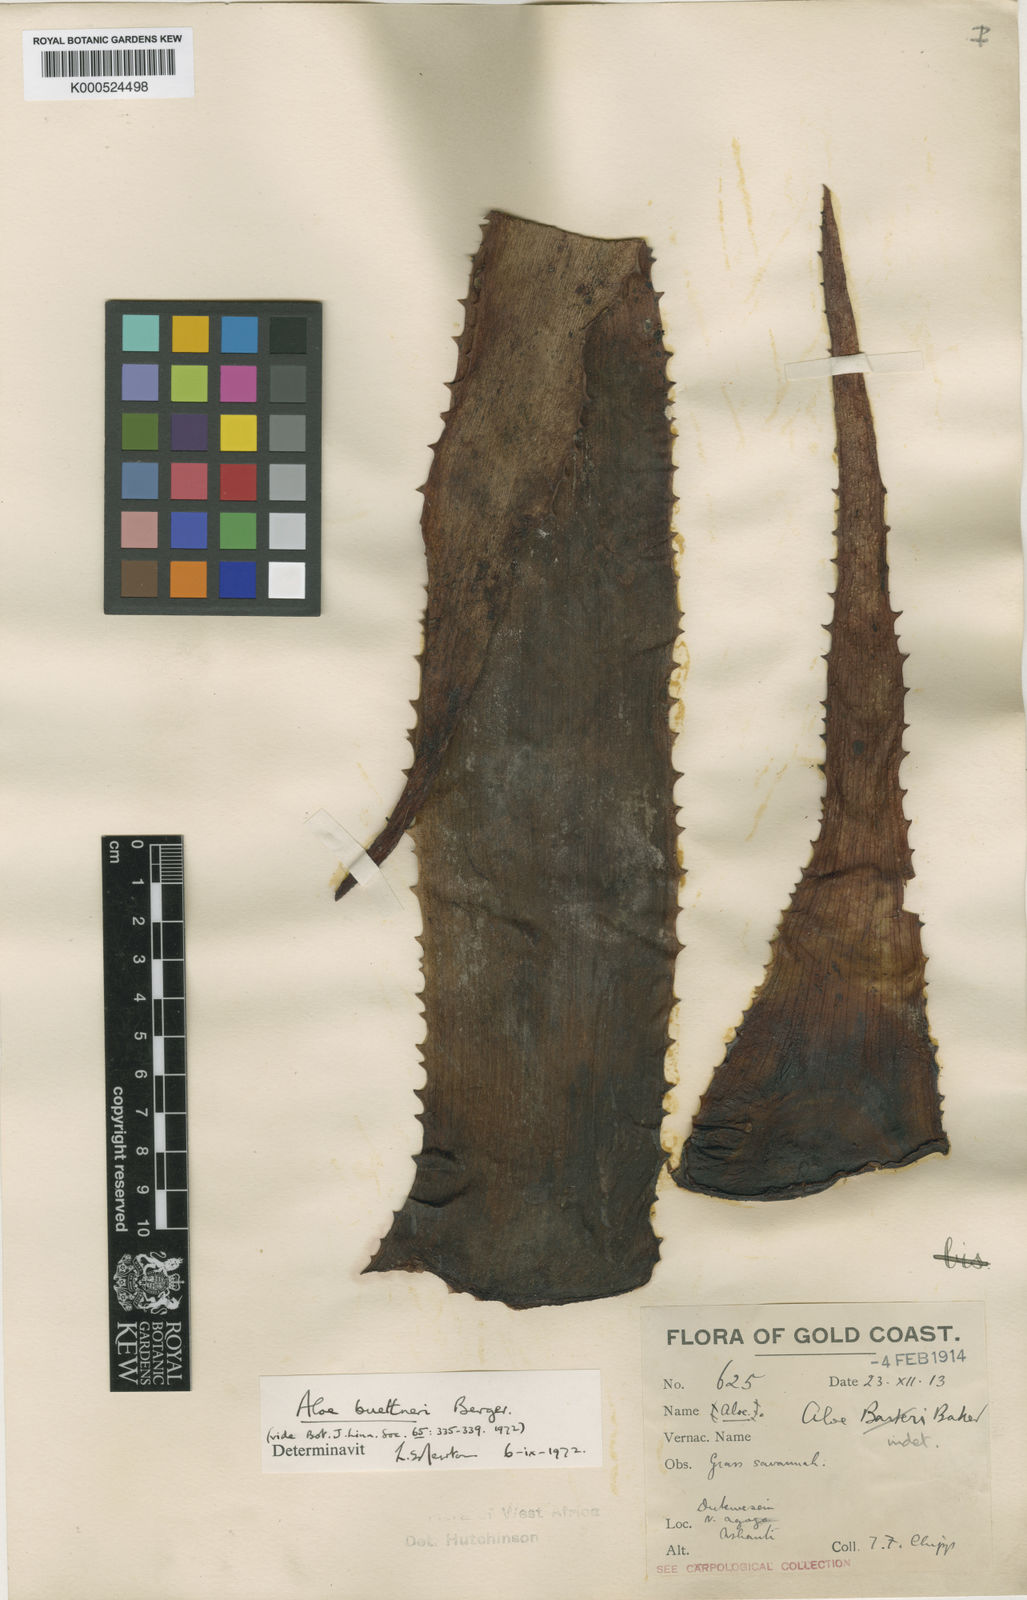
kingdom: Plantae
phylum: Tracheophyta
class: Liliopsida
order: Asparagales
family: Asphodelaceae
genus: Aloe
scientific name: Aloe buettneri
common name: West african aloe
